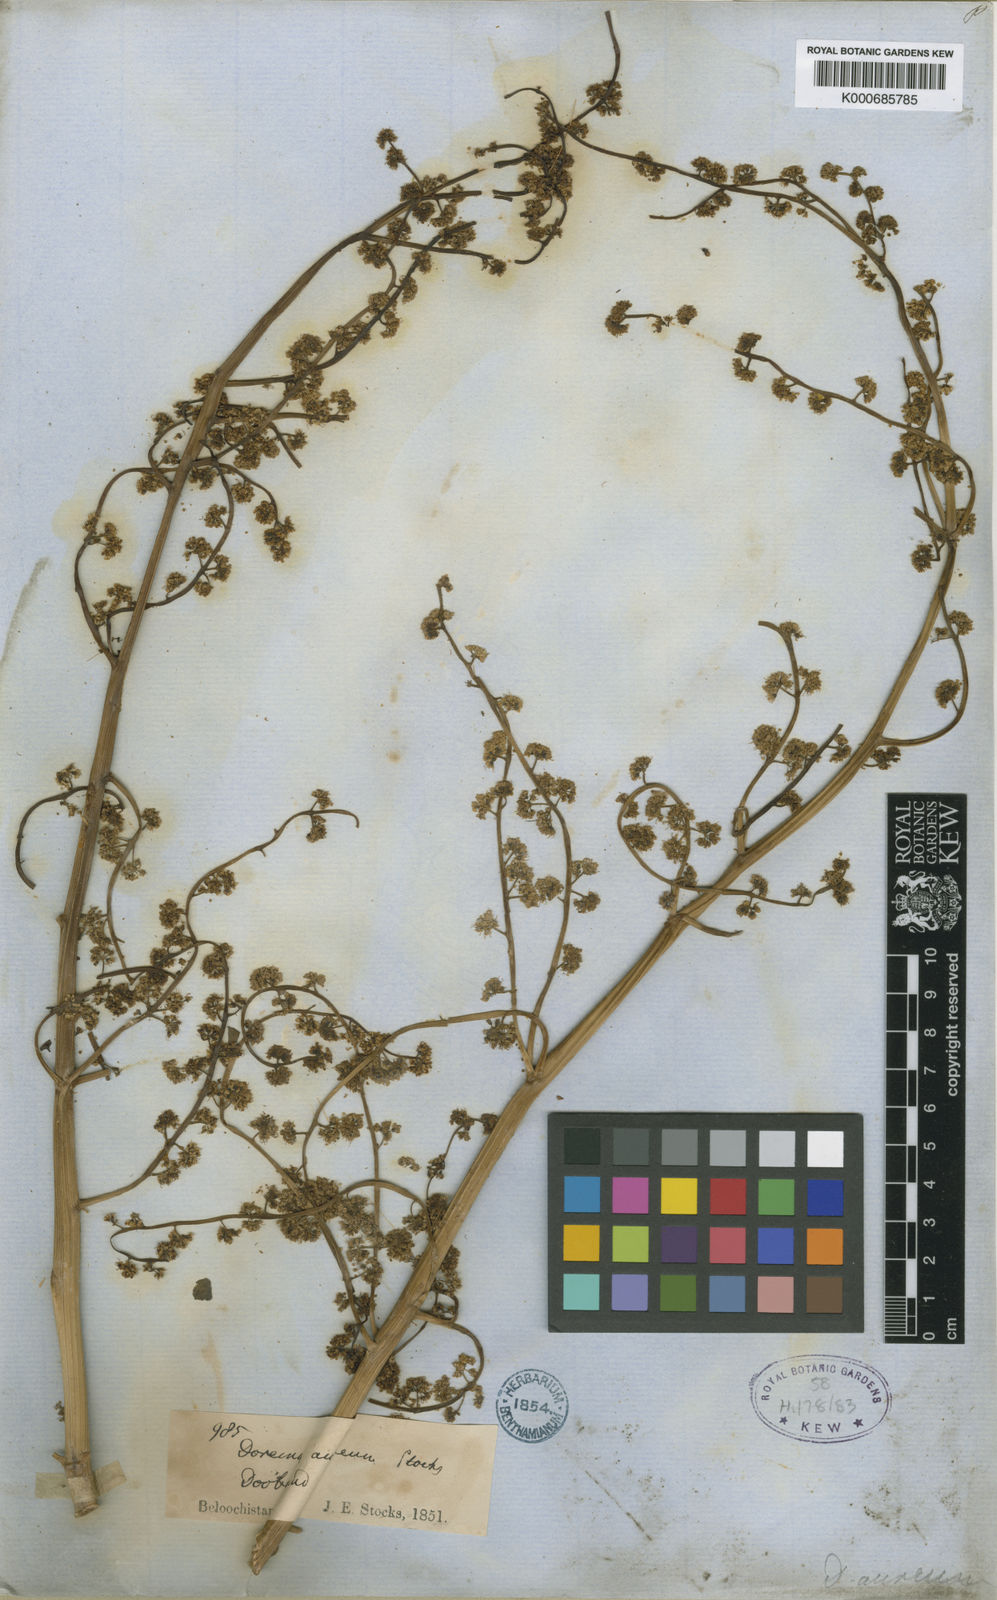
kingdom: Plantae
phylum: Tracheophyta
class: Magnoliopsida
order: Apiales
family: Apiaceae
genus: Ferula
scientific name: Ferula downieorum
